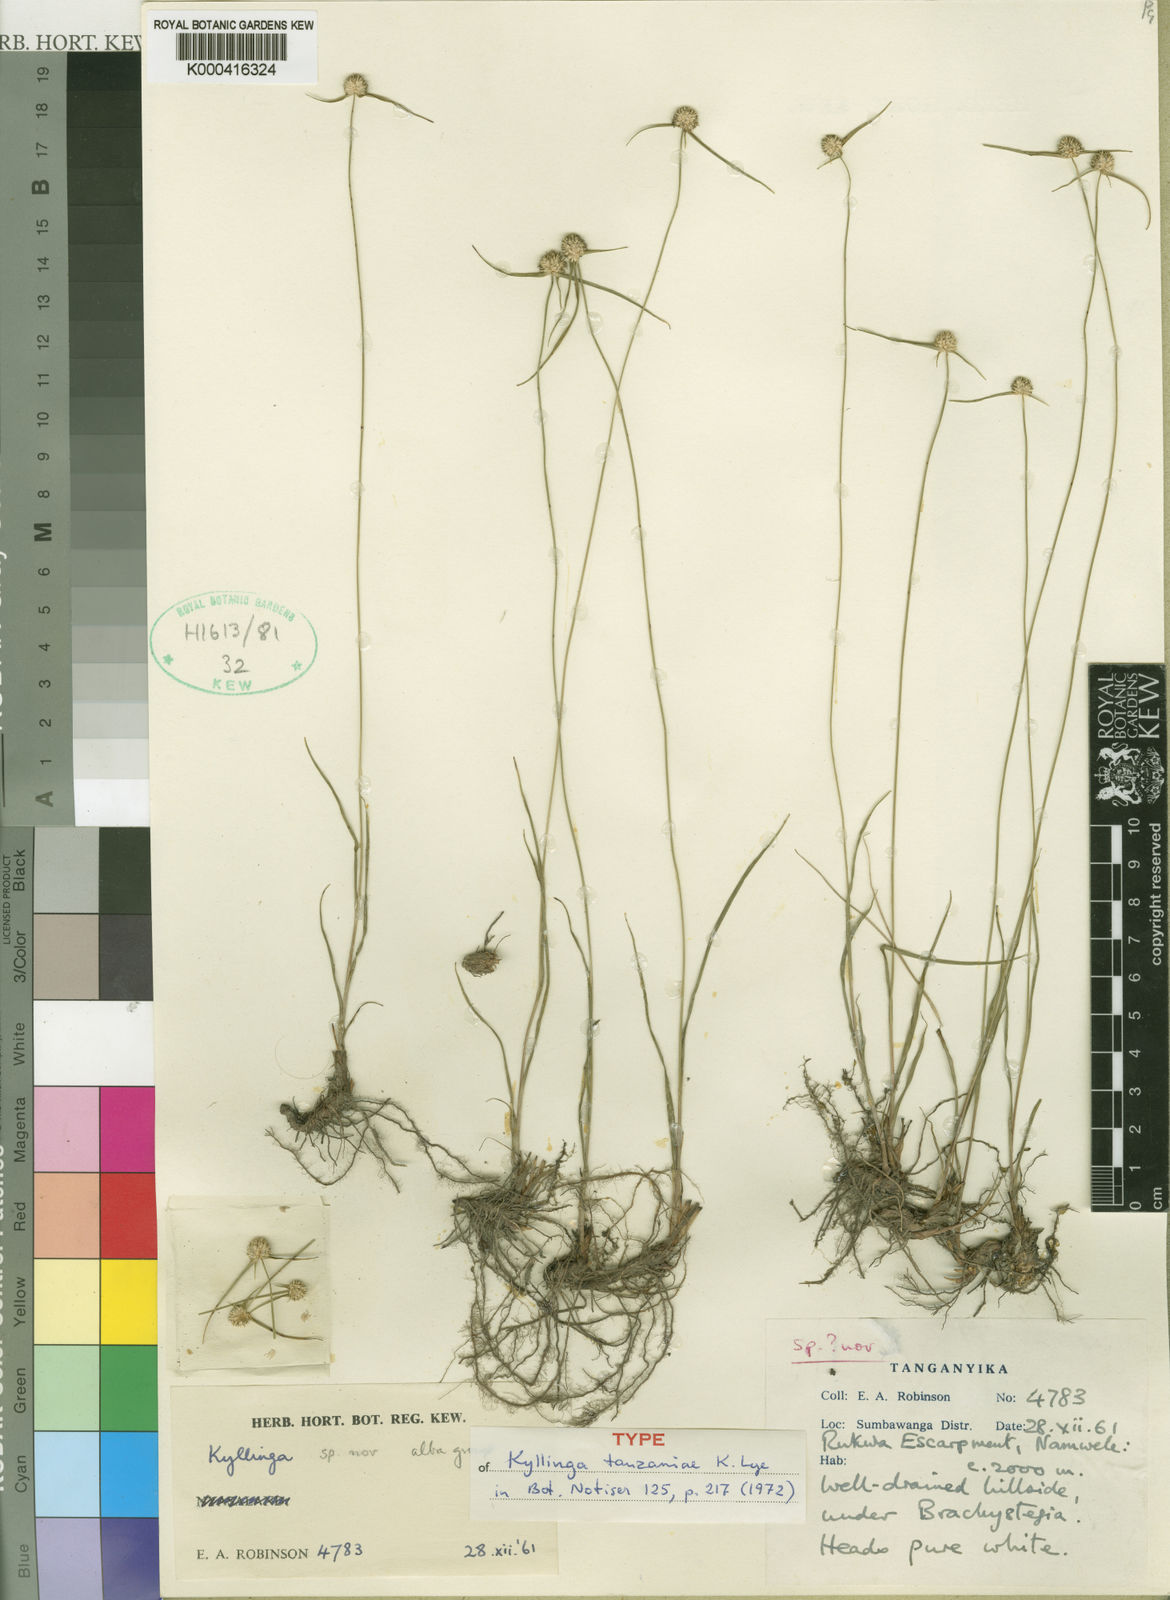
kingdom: Plantae
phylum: Tracheophyta
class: Liliopsida
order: Poales
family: Cyperaceae
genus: Cyperus
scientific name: Cyperus tanzaniae
